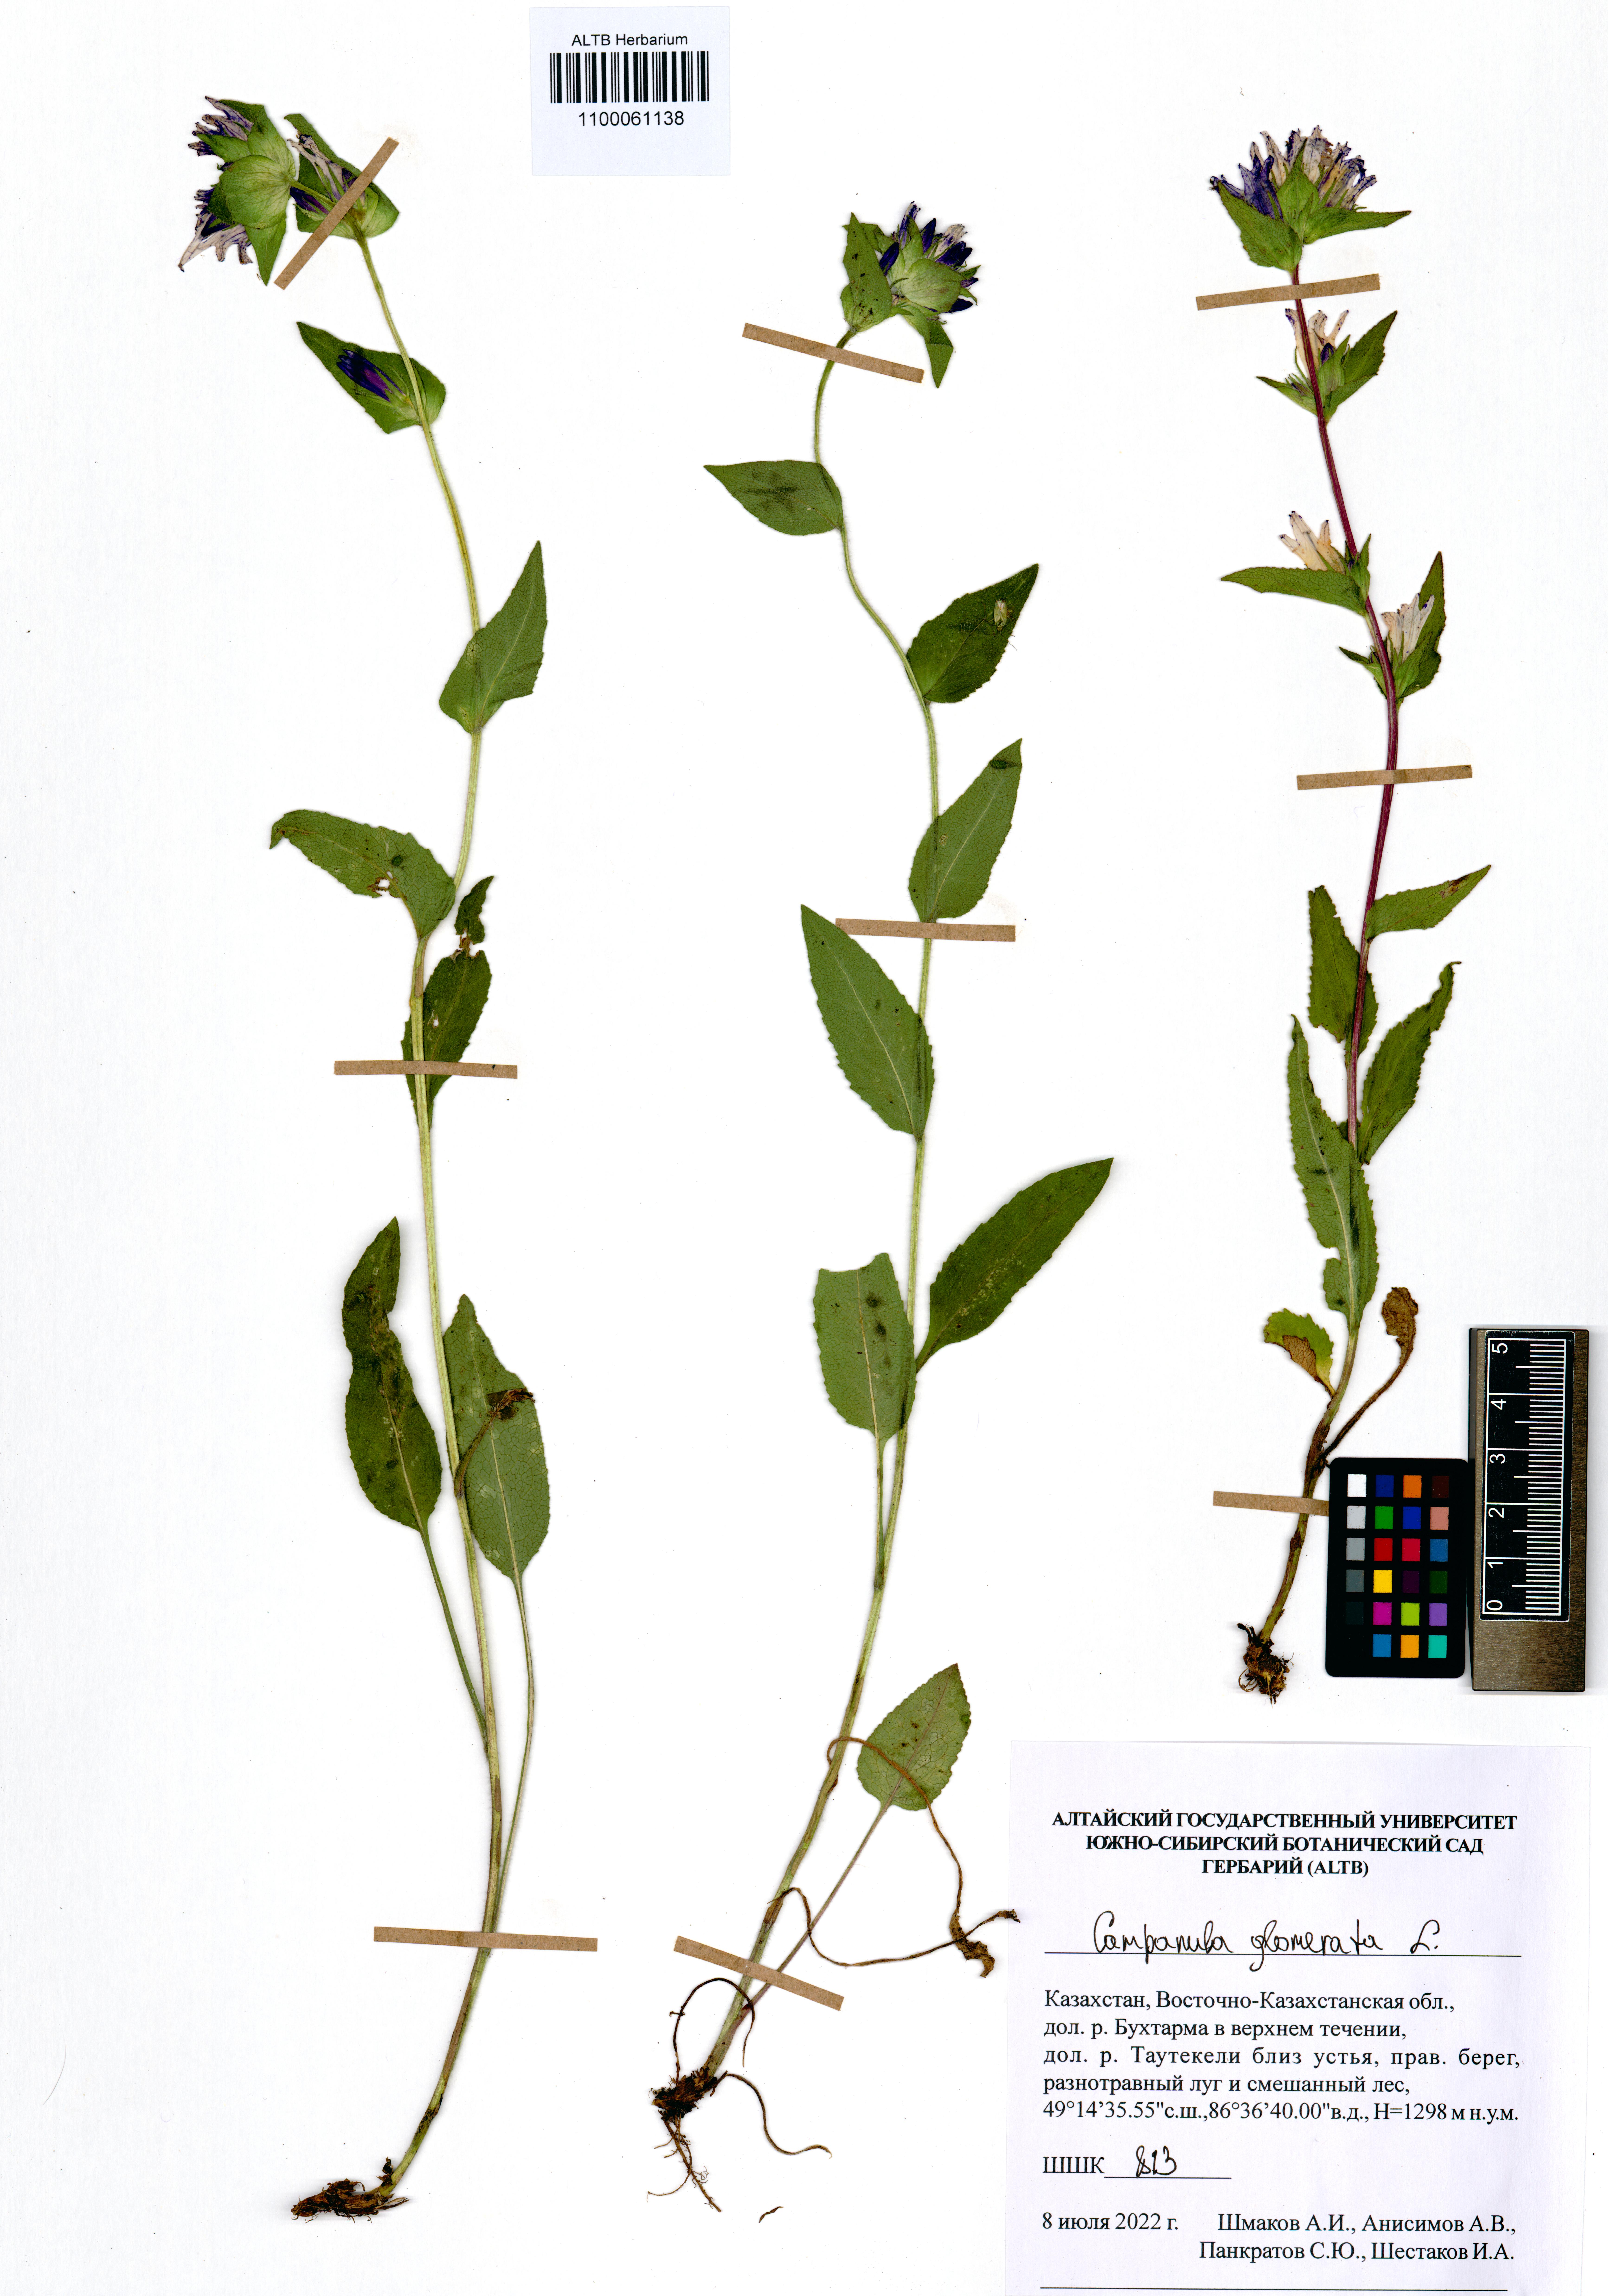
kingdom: Plantae
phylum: Tracheophyta
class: Magnoliopsida
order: Asterales
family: Campanulaceae
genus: Campanula
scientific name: Campanula glomerata
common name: Clustered bellflower
